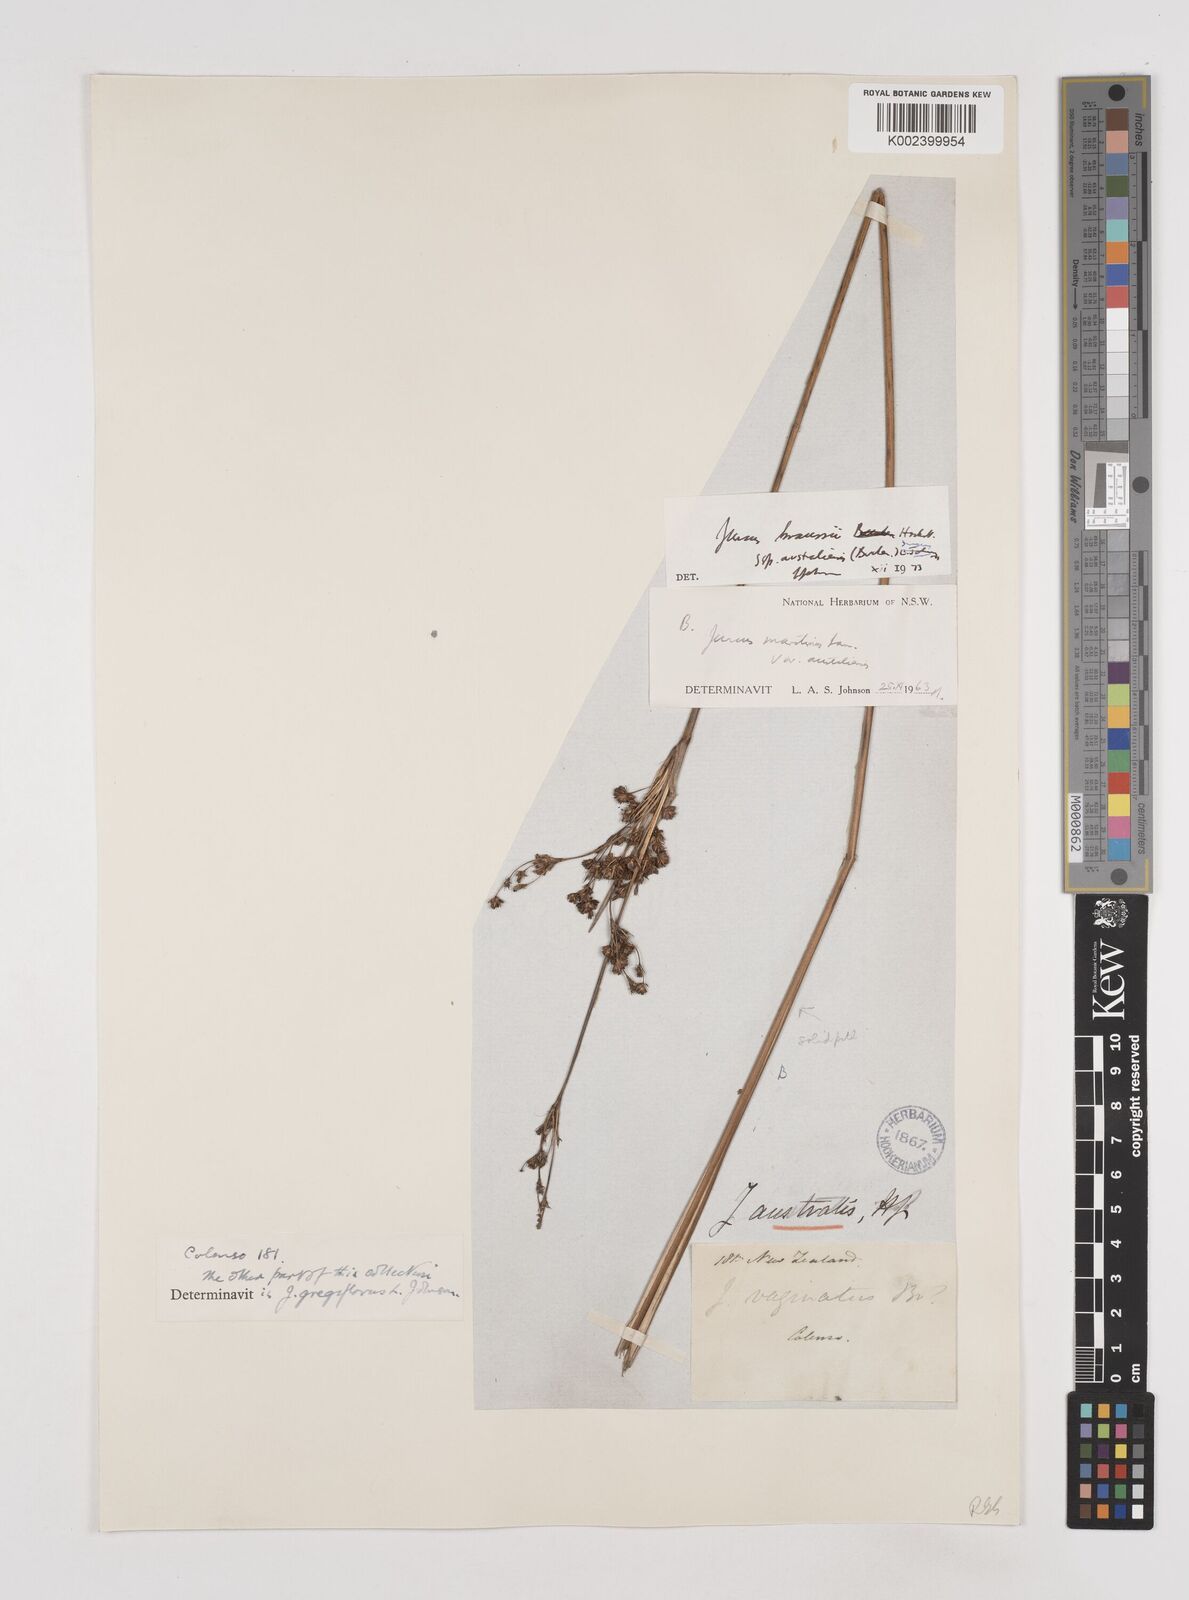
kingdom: Plantae
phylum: Tracheophyta
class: Liliopsida
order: Poales
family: Juncaceae
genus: Juncus
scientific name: Juncus kraussii
